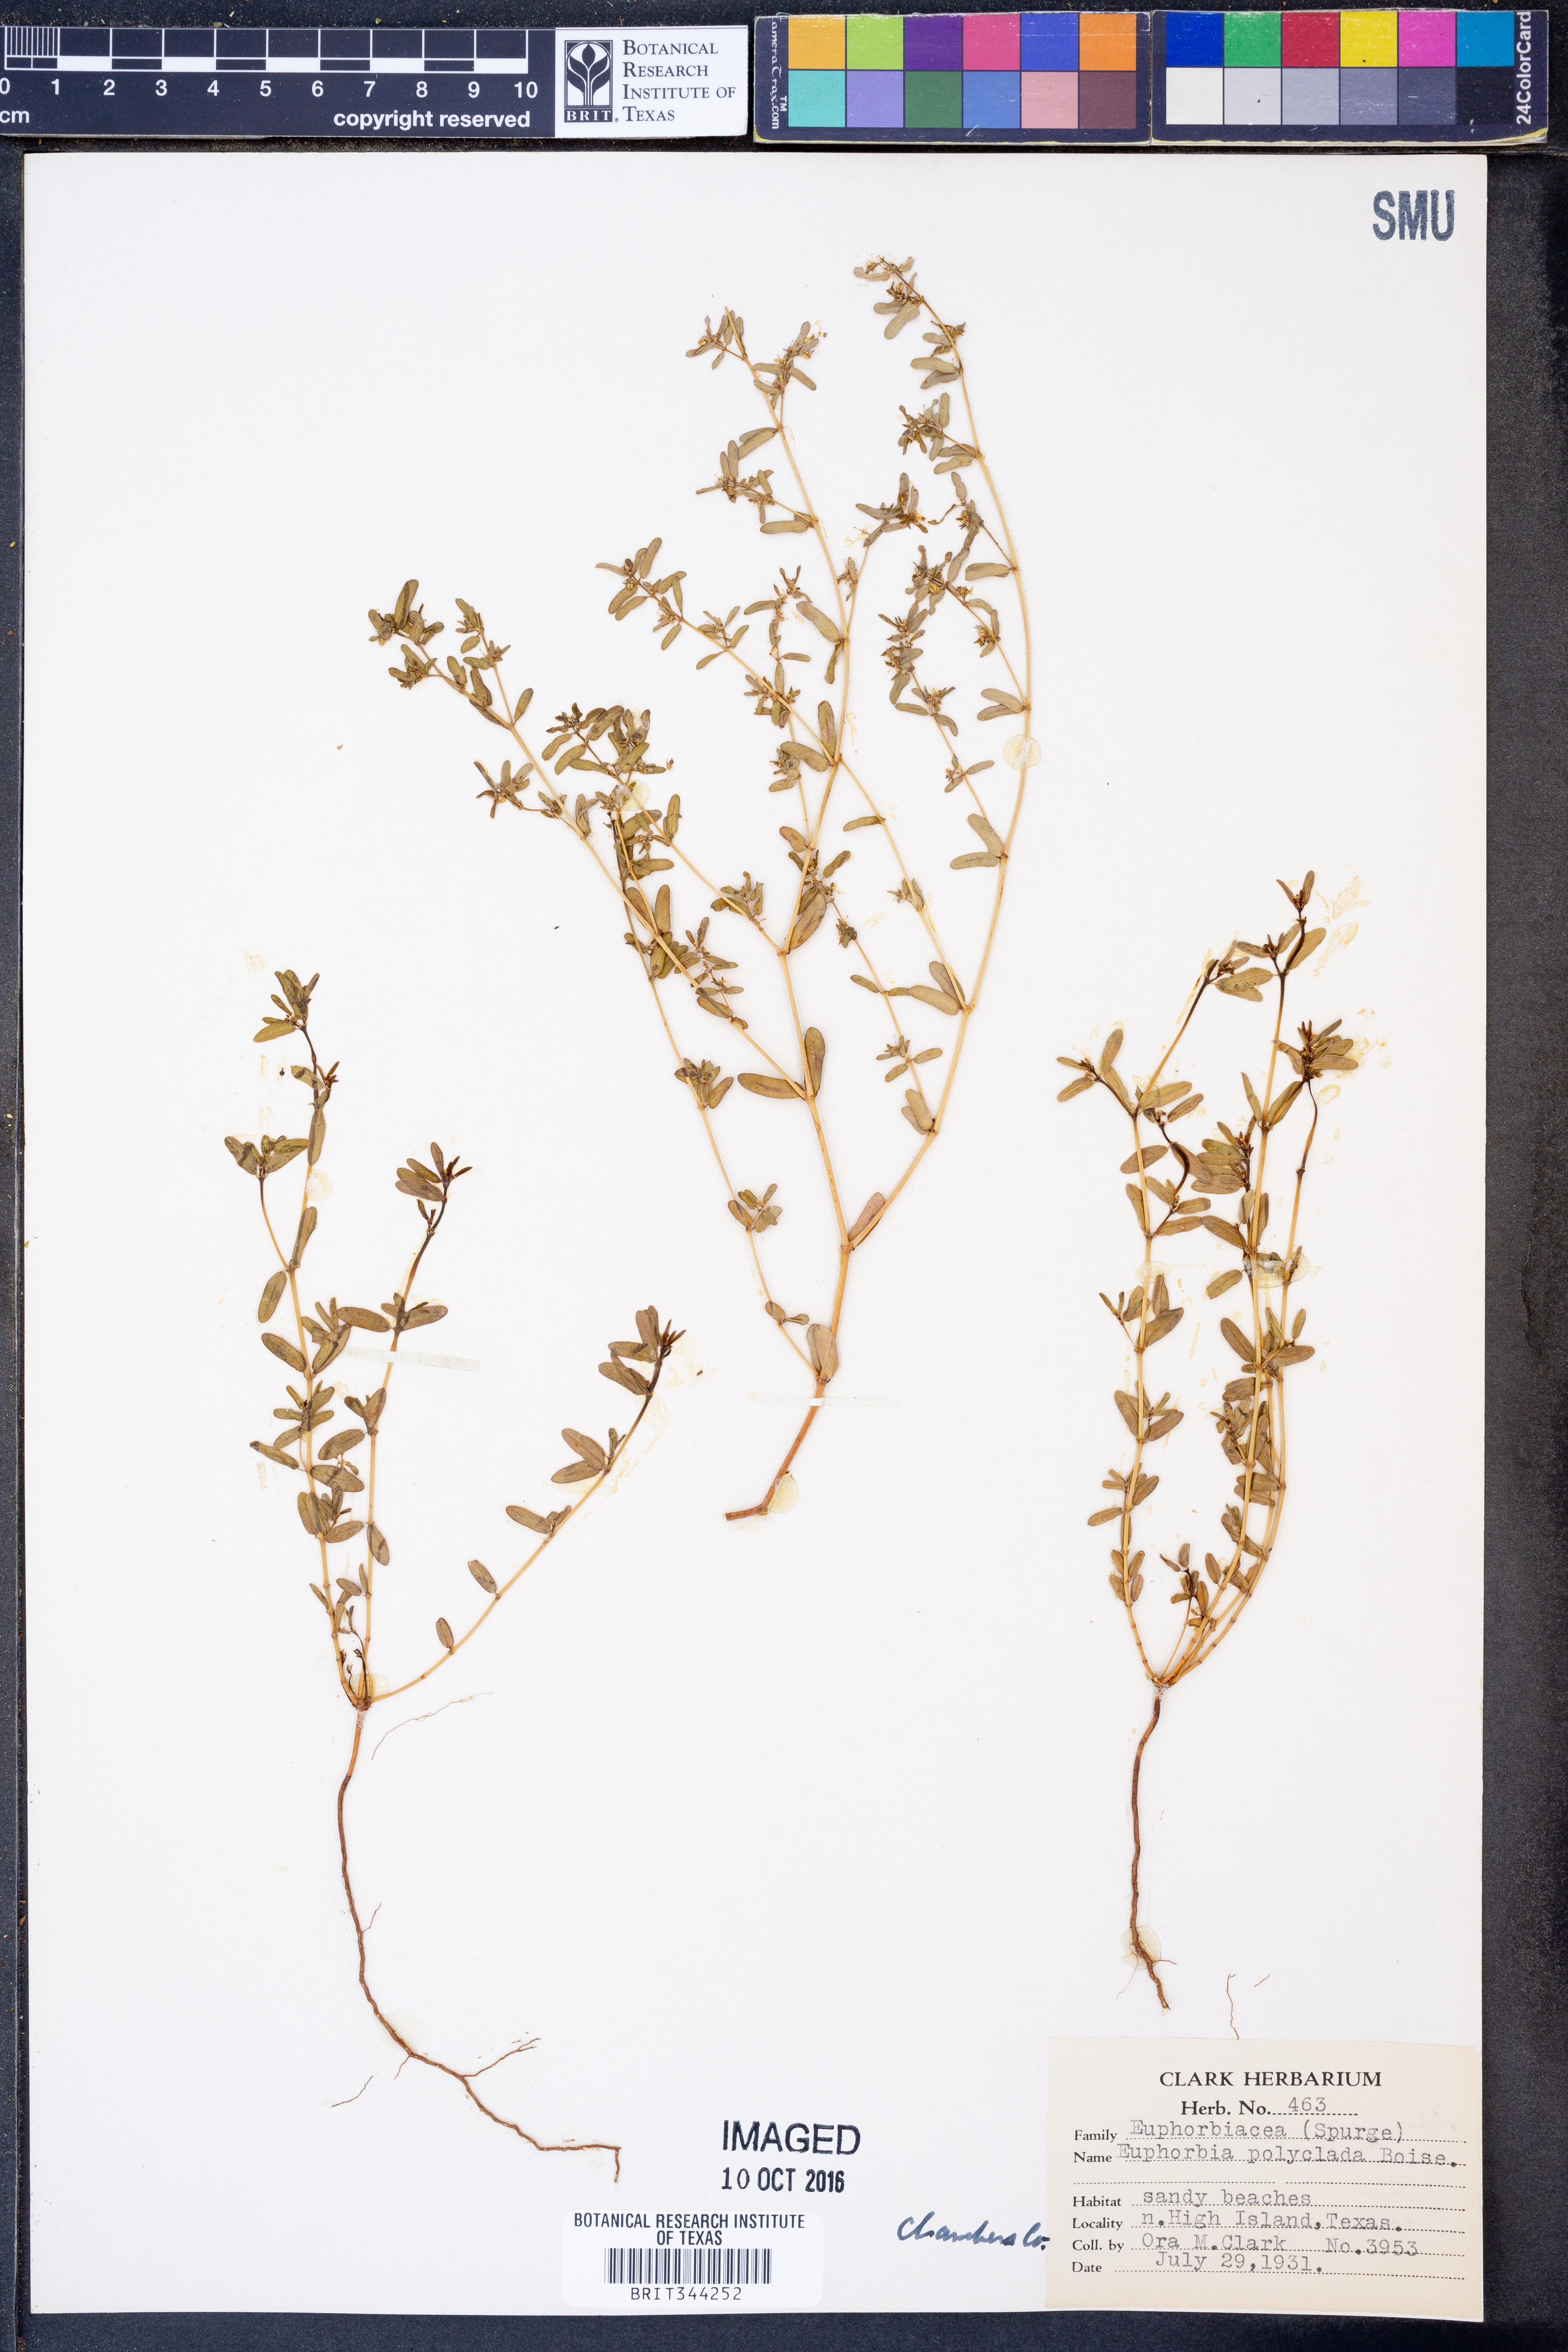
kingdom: Plantae
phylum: Tracheophyta
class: Magnoliopsida
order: Malpighiales
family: Euphorbiaceae
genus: Euphorbia
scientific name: Euphorbia geyeri
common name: Geyer's spurge
